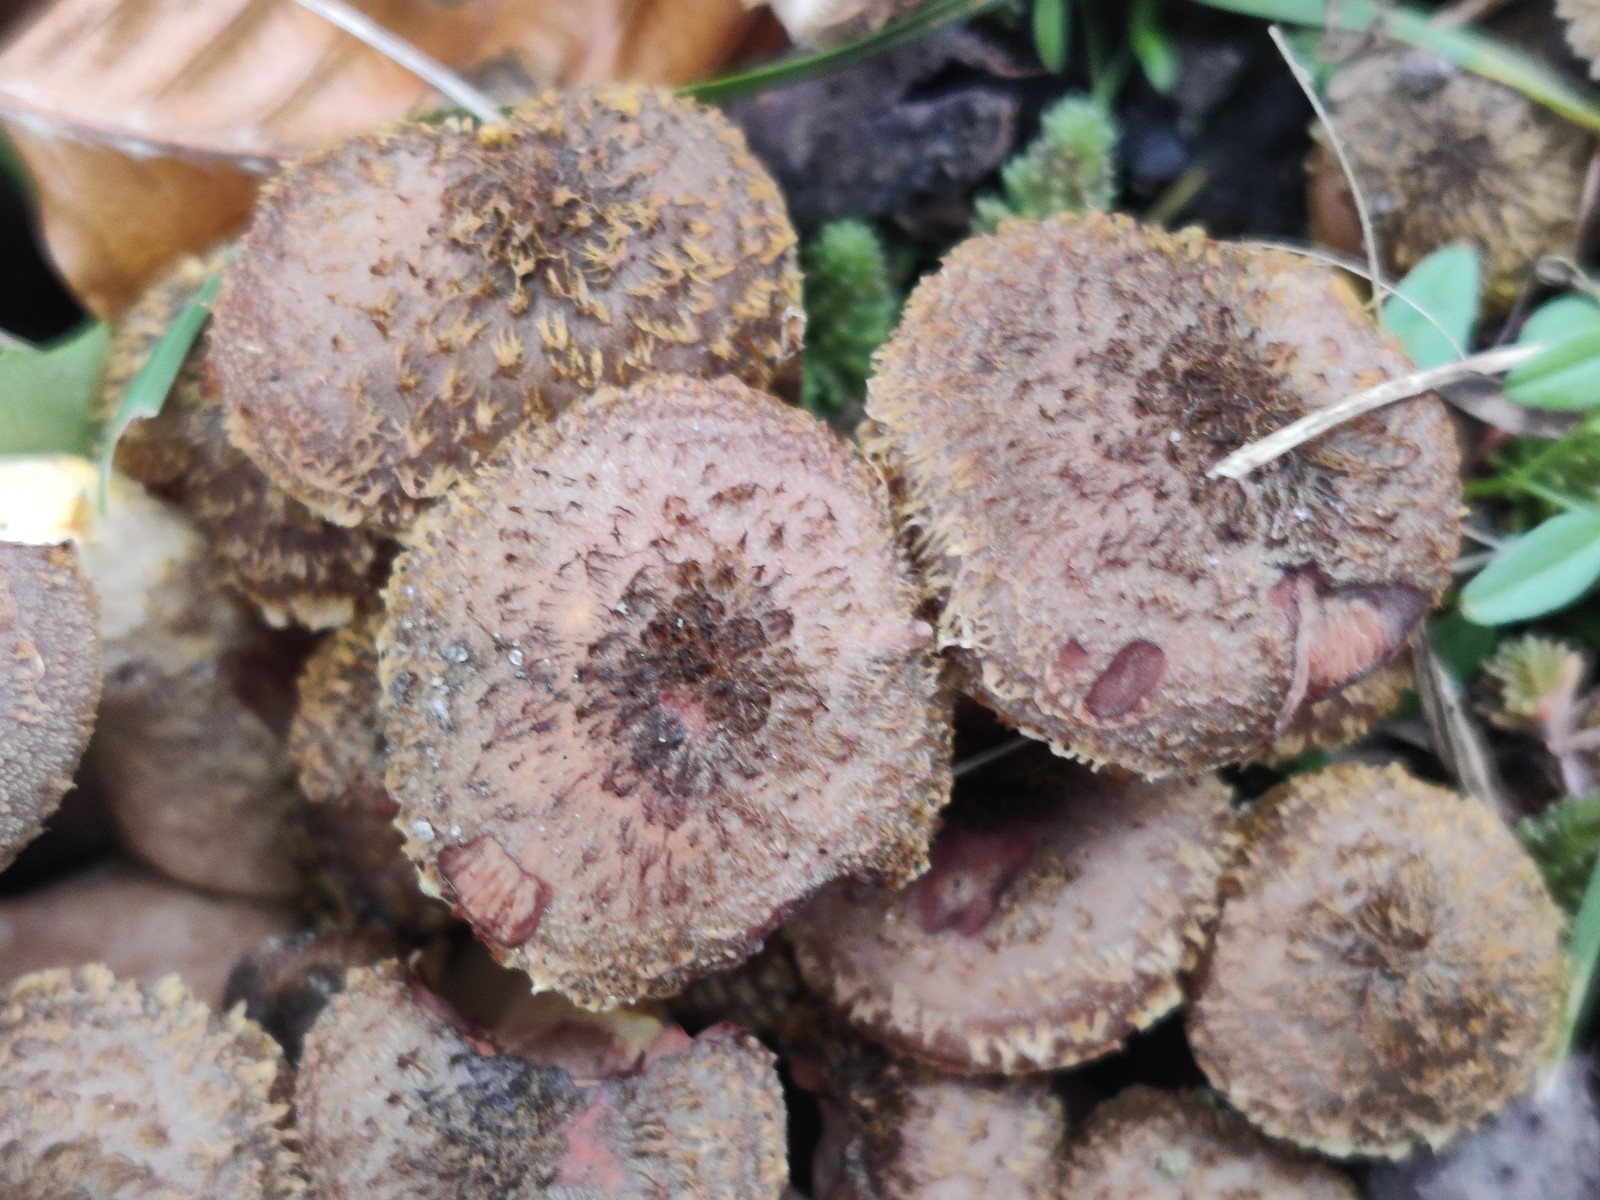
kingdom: Fungi
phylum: Basidiomycota
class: Agaricomycetes
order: Agaricales
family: Physalacriaceae
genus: Armillaria
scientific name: Armillaria lutea
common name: køllestokket honningsvamp
